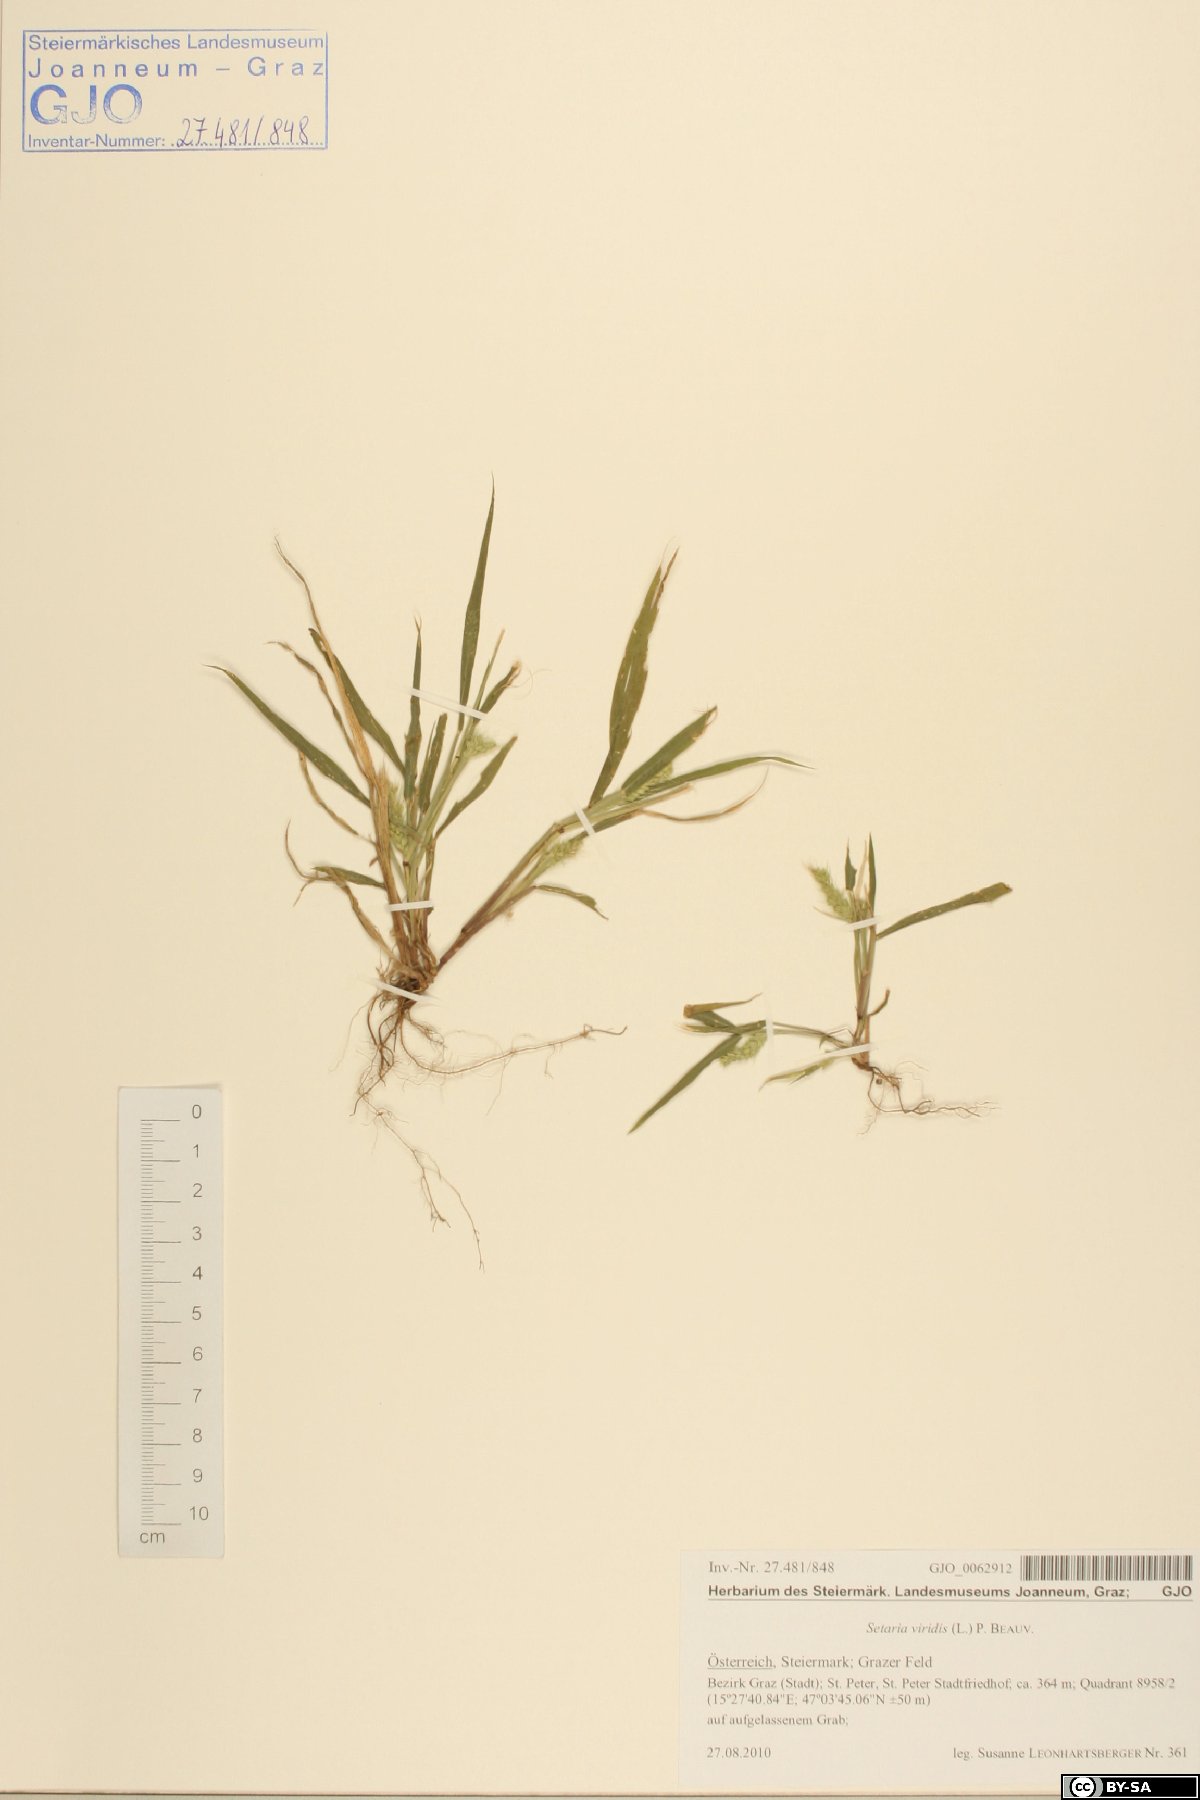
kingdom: Plantae
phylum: Tracheophyta
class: Liliopsida
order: Poales
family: Poaceae
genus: Setaria
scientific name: Setaria viridis
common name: Green bristlegrass
